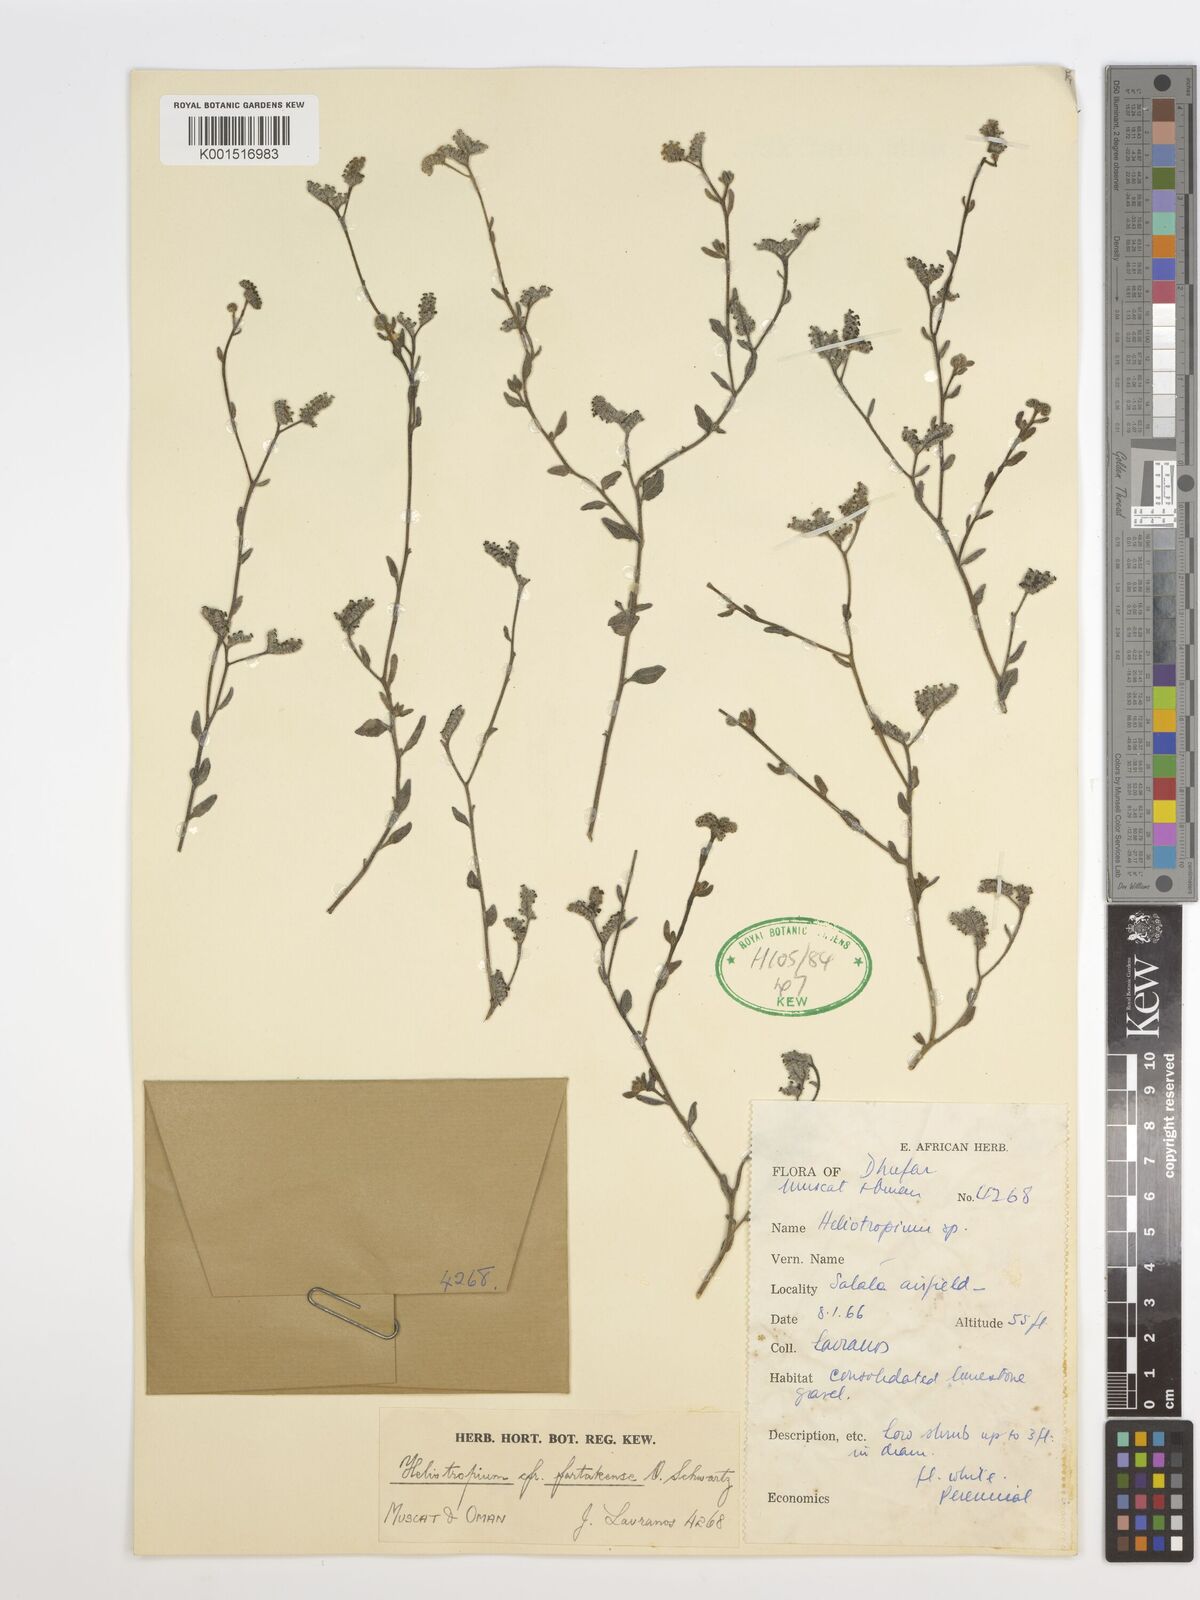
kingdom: Plantae
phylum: Tracheophyta
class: Magnoliopsida
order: Boraginales
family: Heliotropiaceae
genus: Heliotropium
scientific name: Heliotropium
